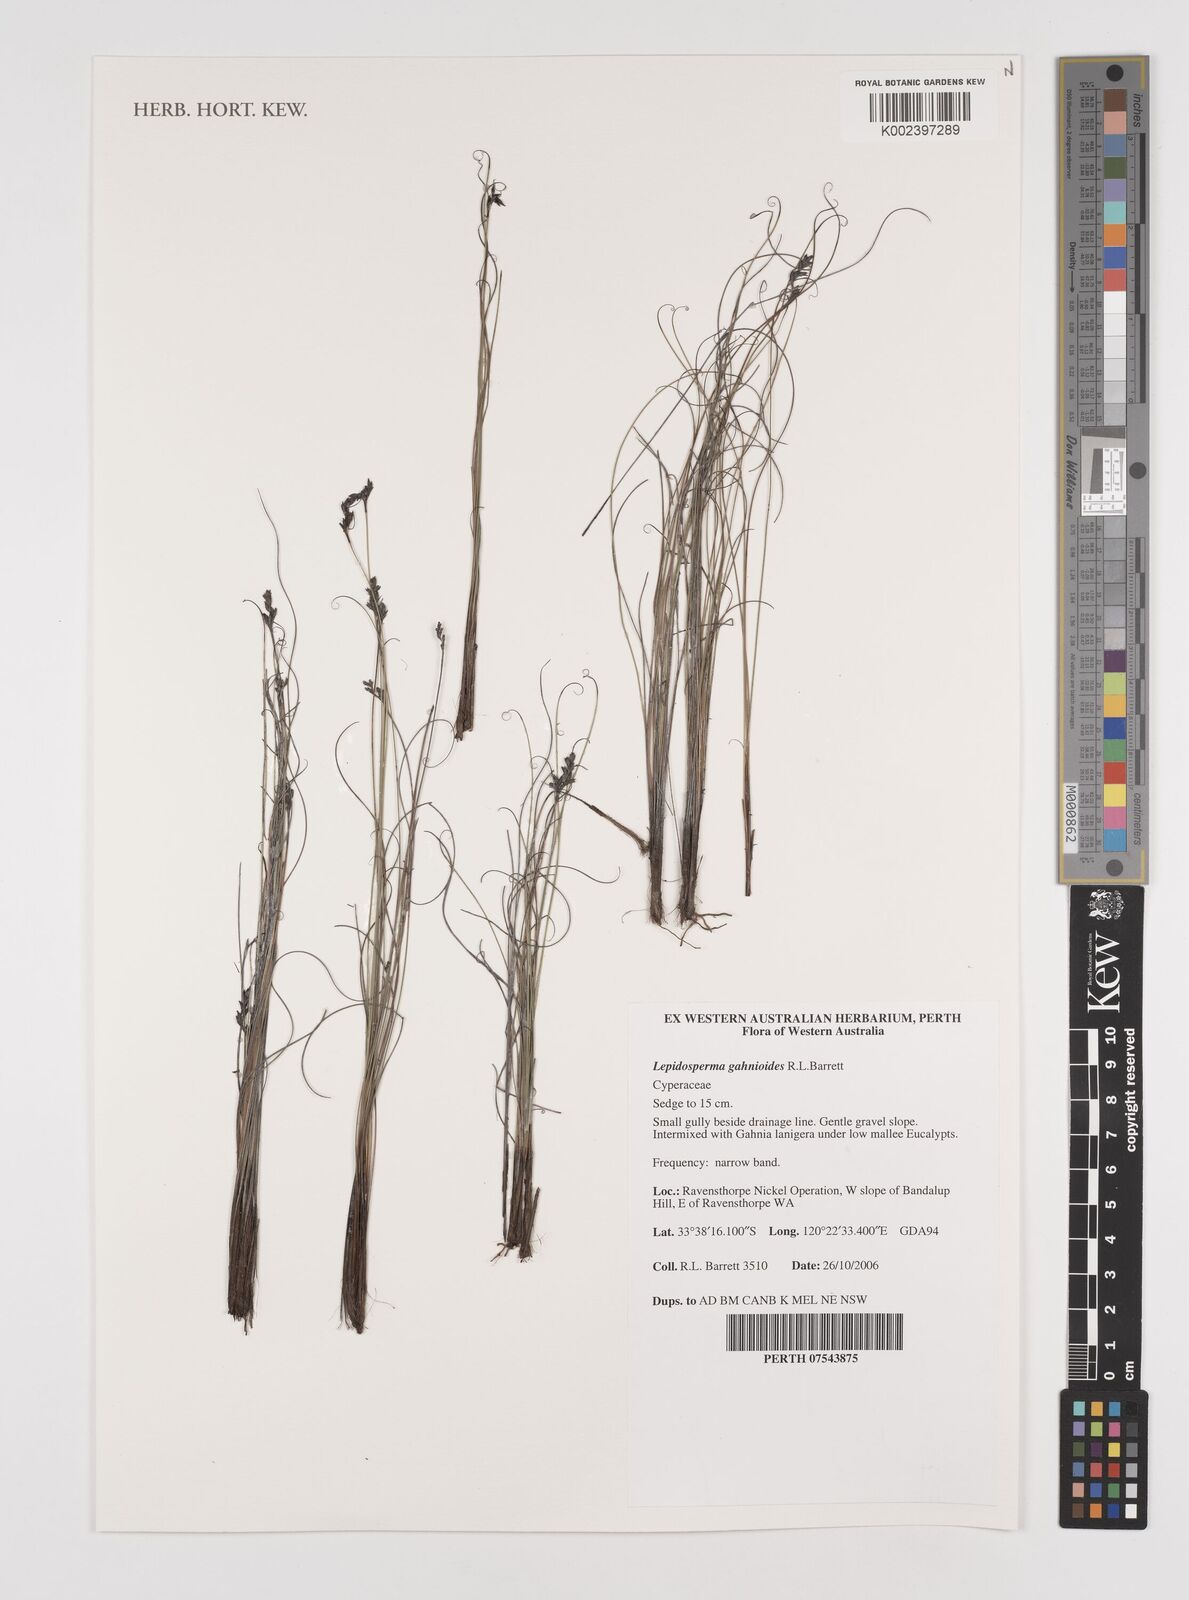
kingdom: Plantae
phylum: Tracheophyta
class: Liliopsida
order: Poales
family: Cyperaceae
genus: Lepidosperma
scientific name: Lepidosperma gahnioides
